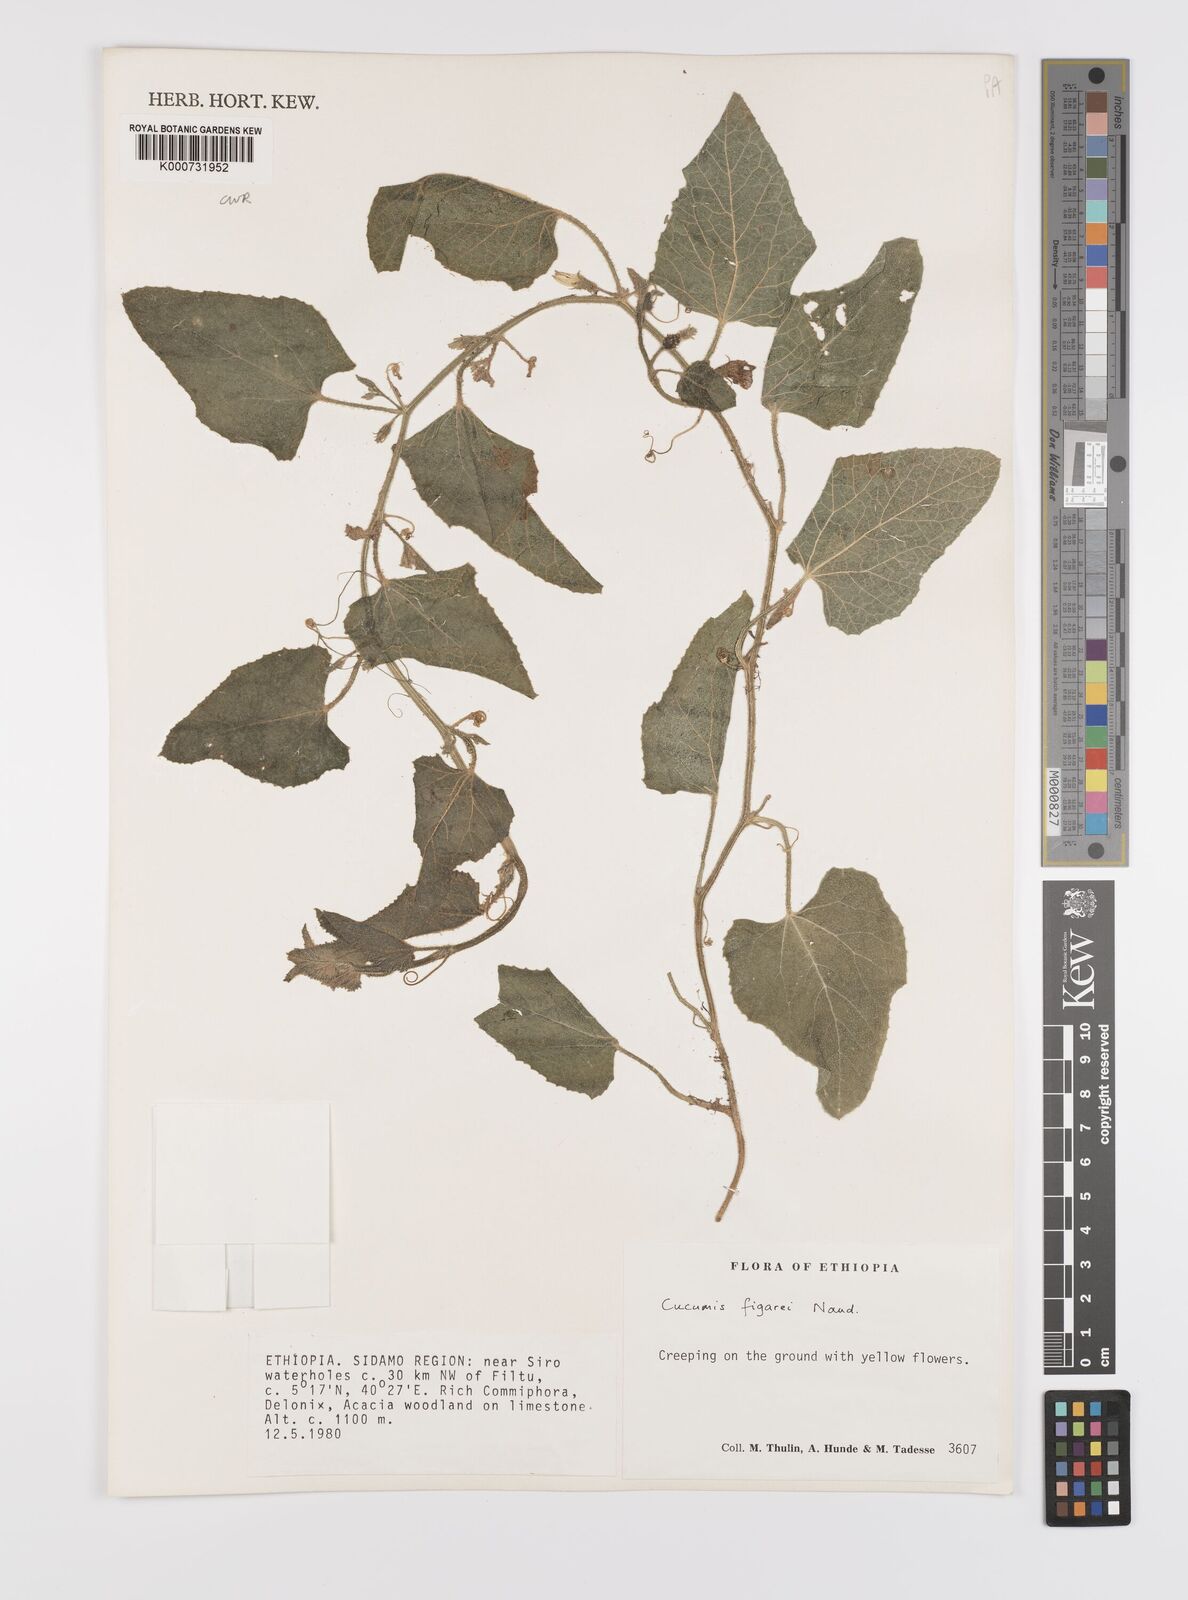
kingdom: Plantae
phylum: Tracheophyta
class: Magnoliopsida
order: Cucurbitales
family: Cucurbitaceae
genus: Cucumis
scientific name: Cucumis
